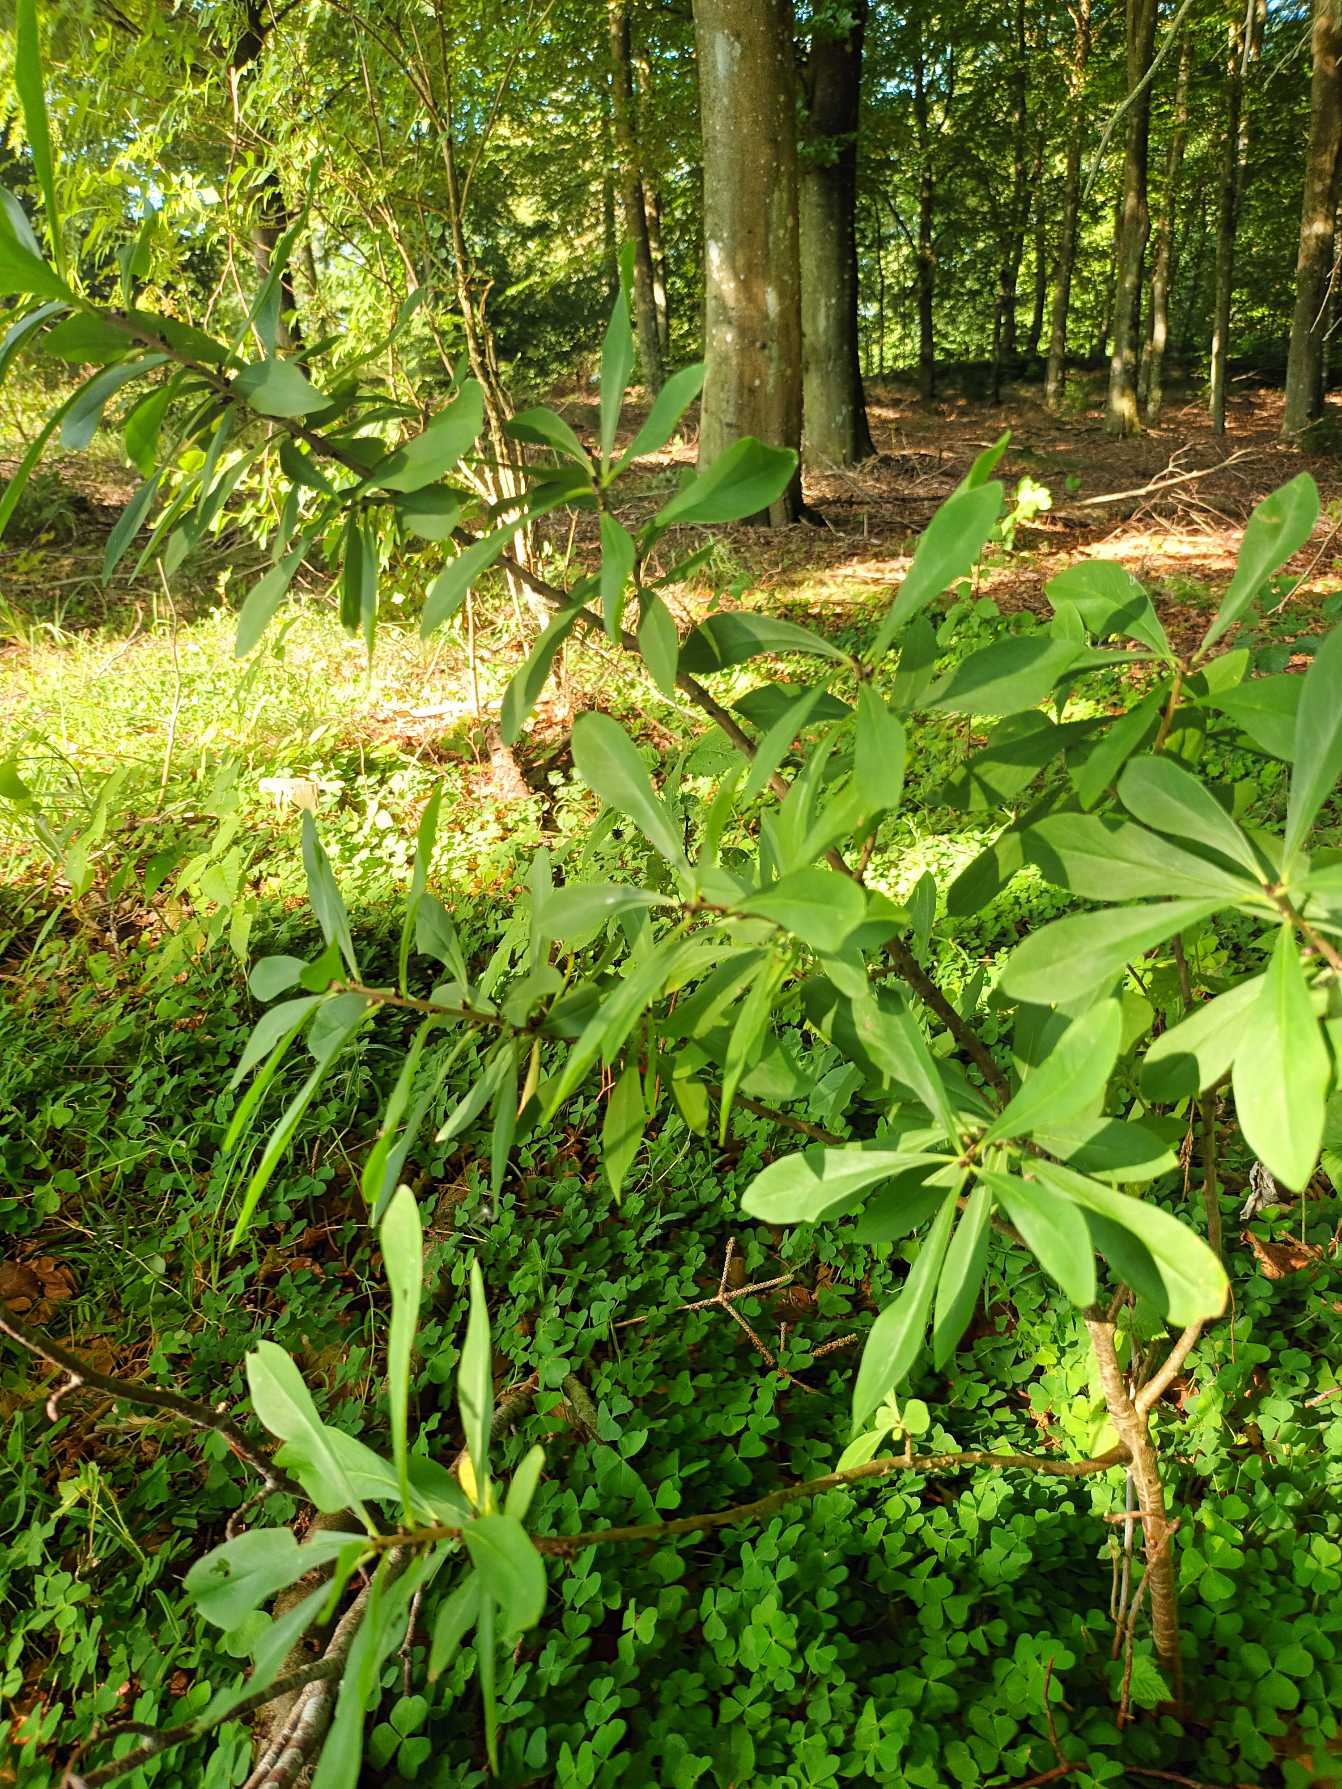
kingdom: Plantae
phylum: Tracheophyta
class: Magnoliopsida
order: Malvales
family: Thymelaeaceae
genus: Daphne
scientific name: Daphne mezereum
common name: Pebertræ
